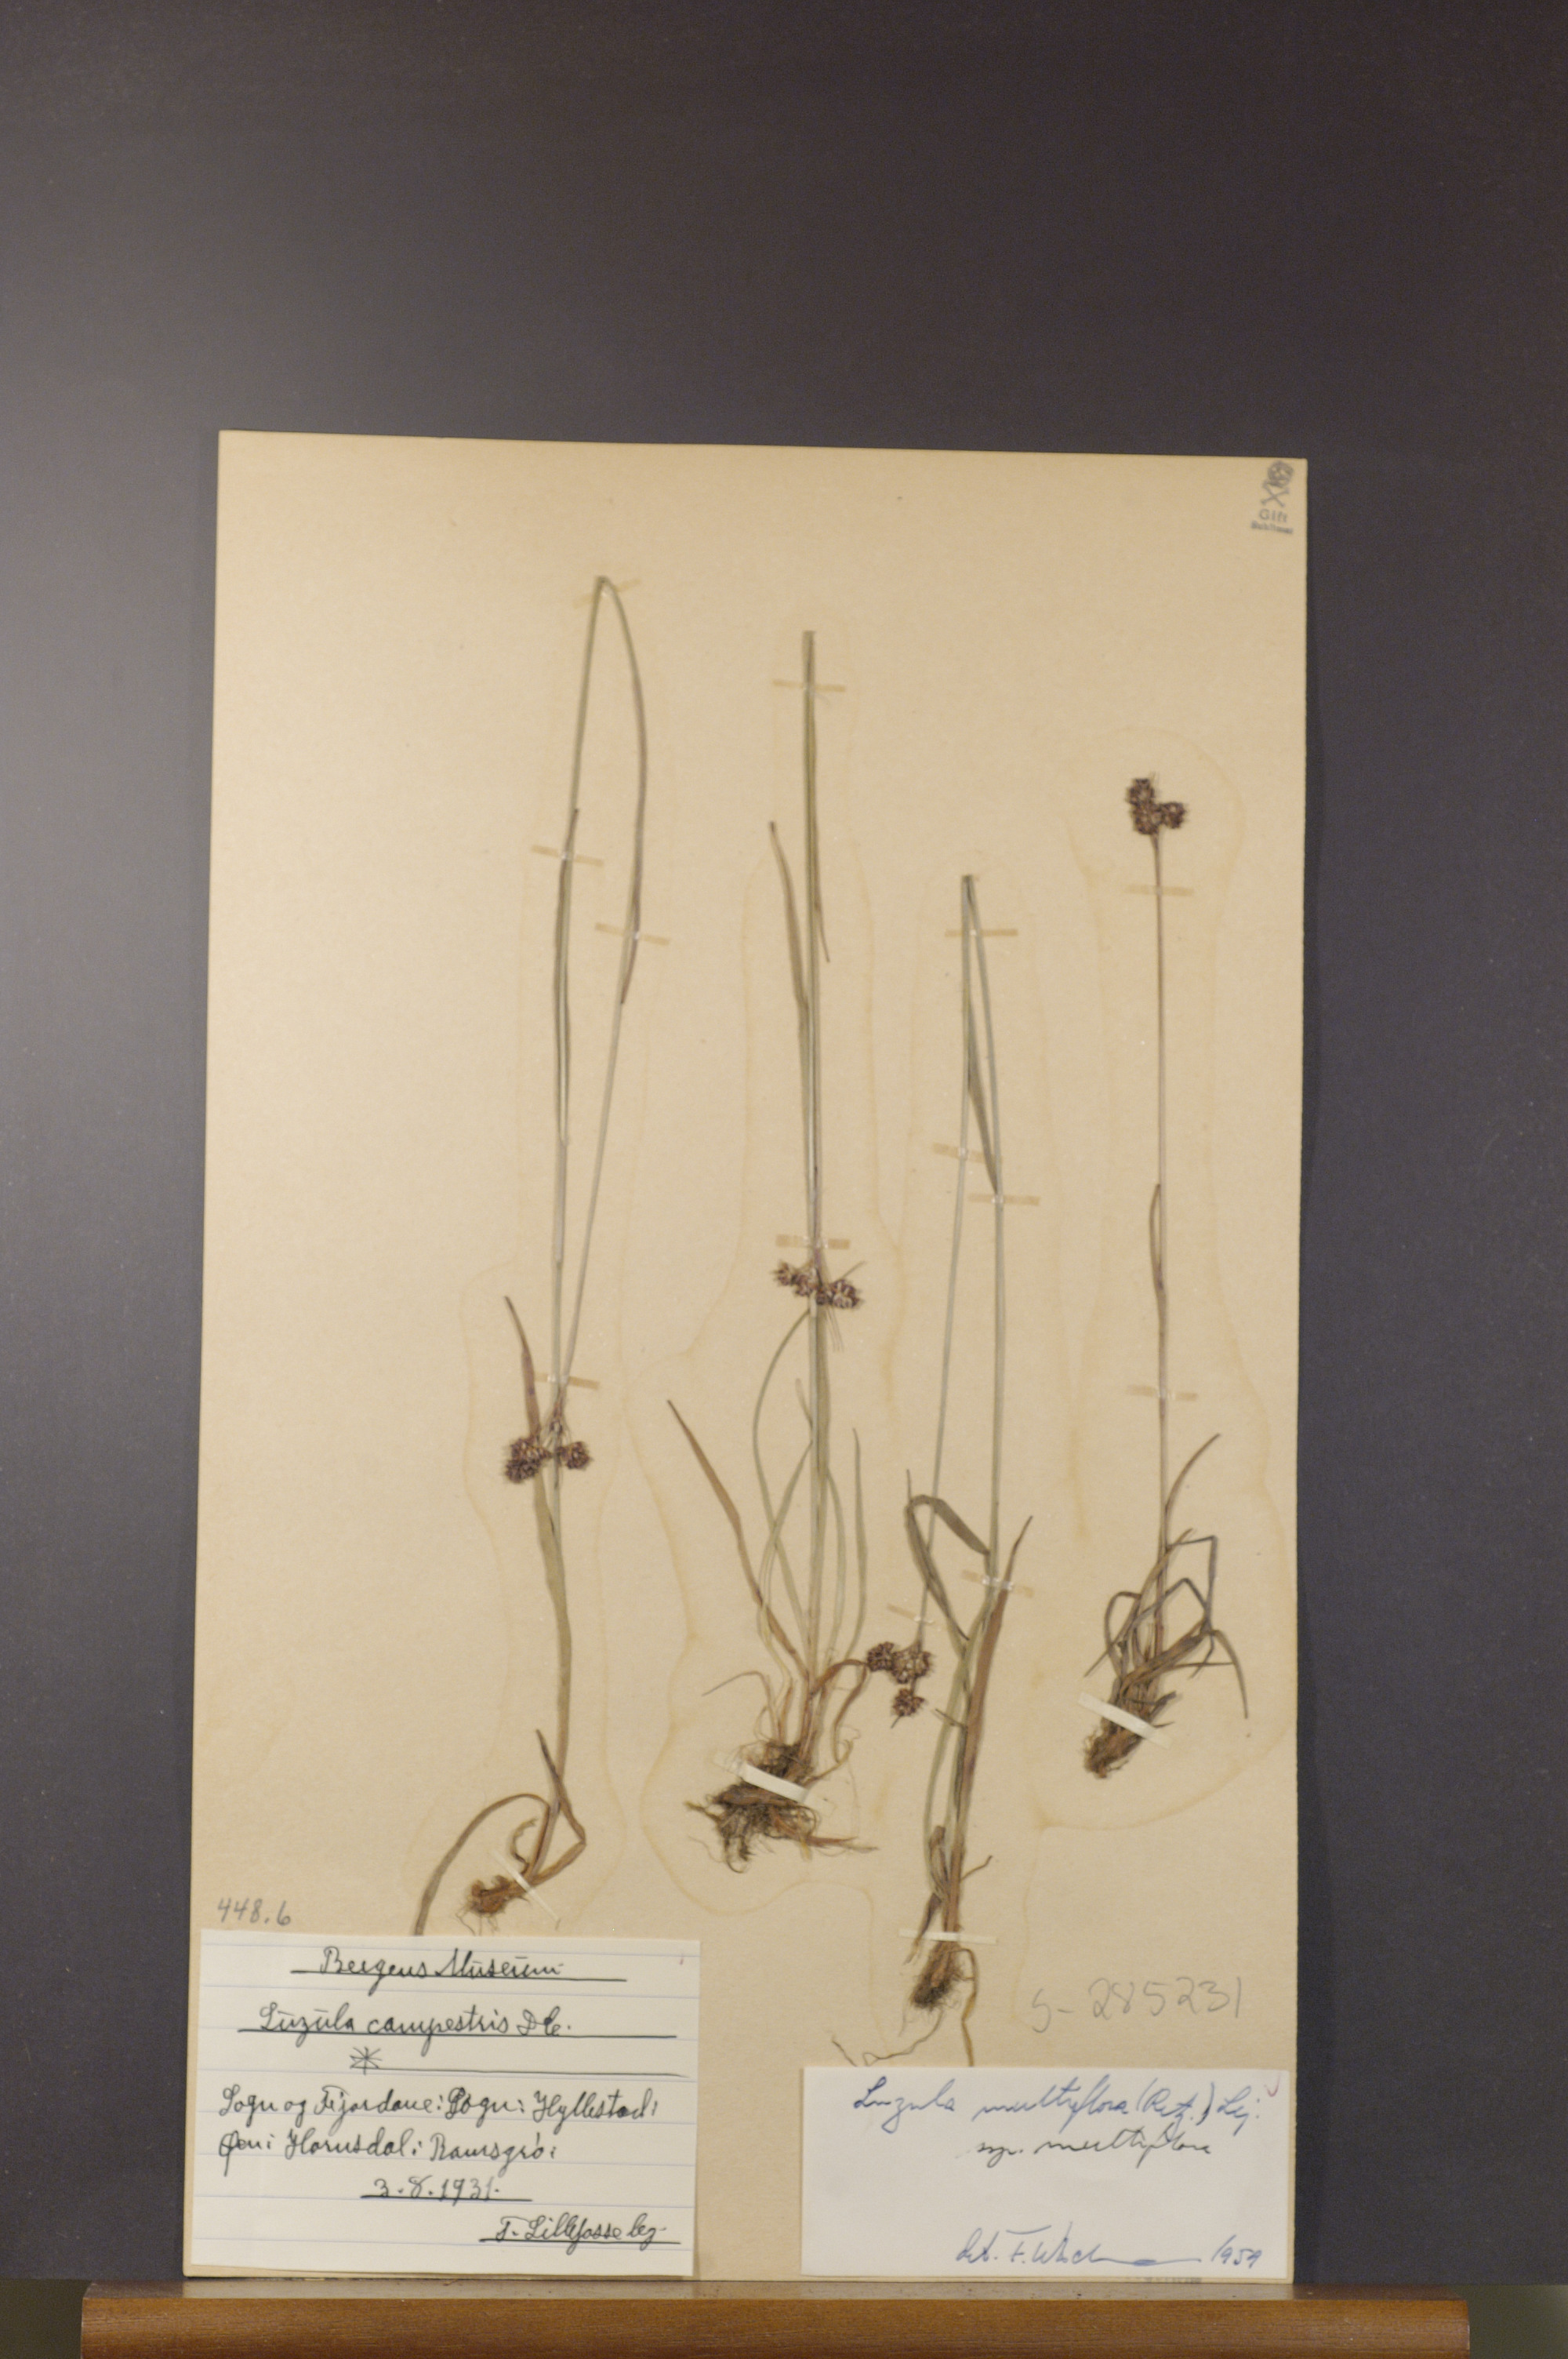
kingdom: Plantae
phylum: Tracheophyta
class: Liliopsida
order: Poales
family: Juncaceae
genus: Luzula
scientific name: Luzula multiflora
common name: Heath wood-rush
